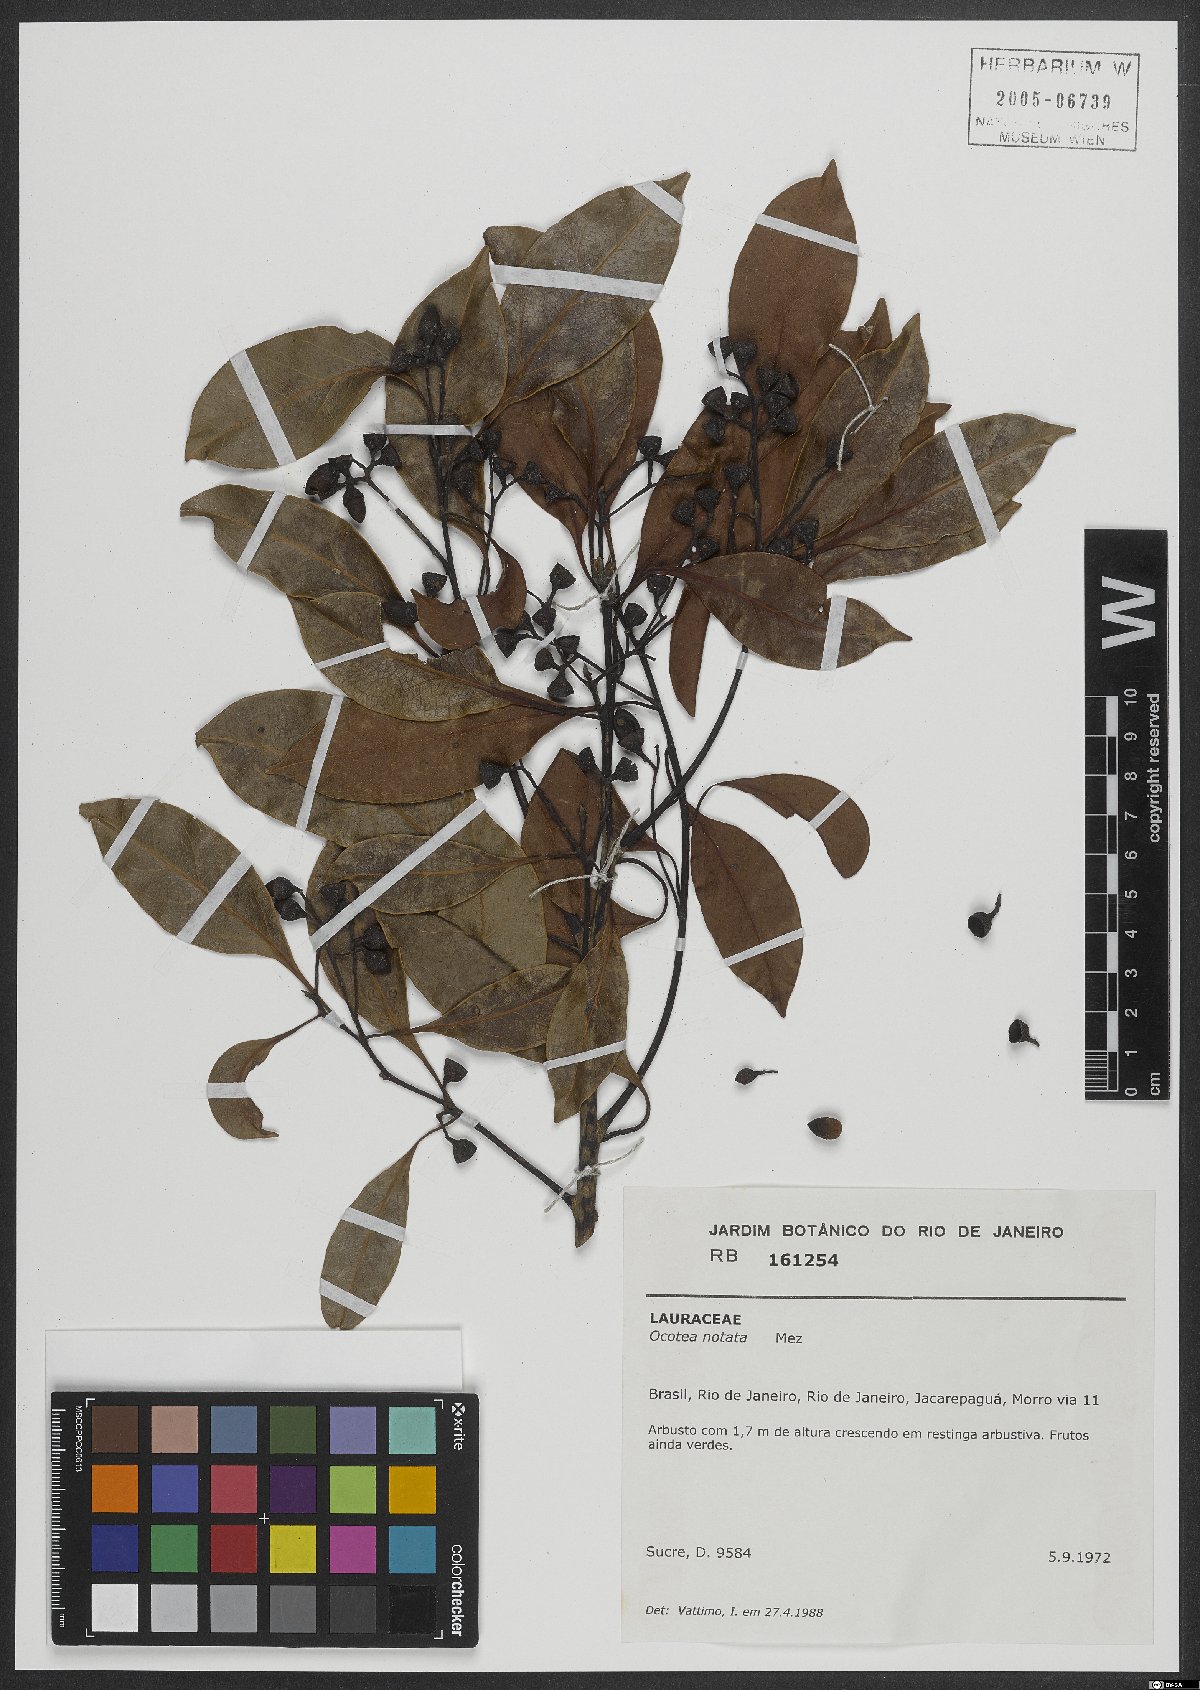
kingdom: Plantae
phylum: Tracheophyta
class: Magnoliopsida
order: Laurales
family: Lauraceae
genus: Mespilodaphne
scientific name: Mespilodaphne notata
